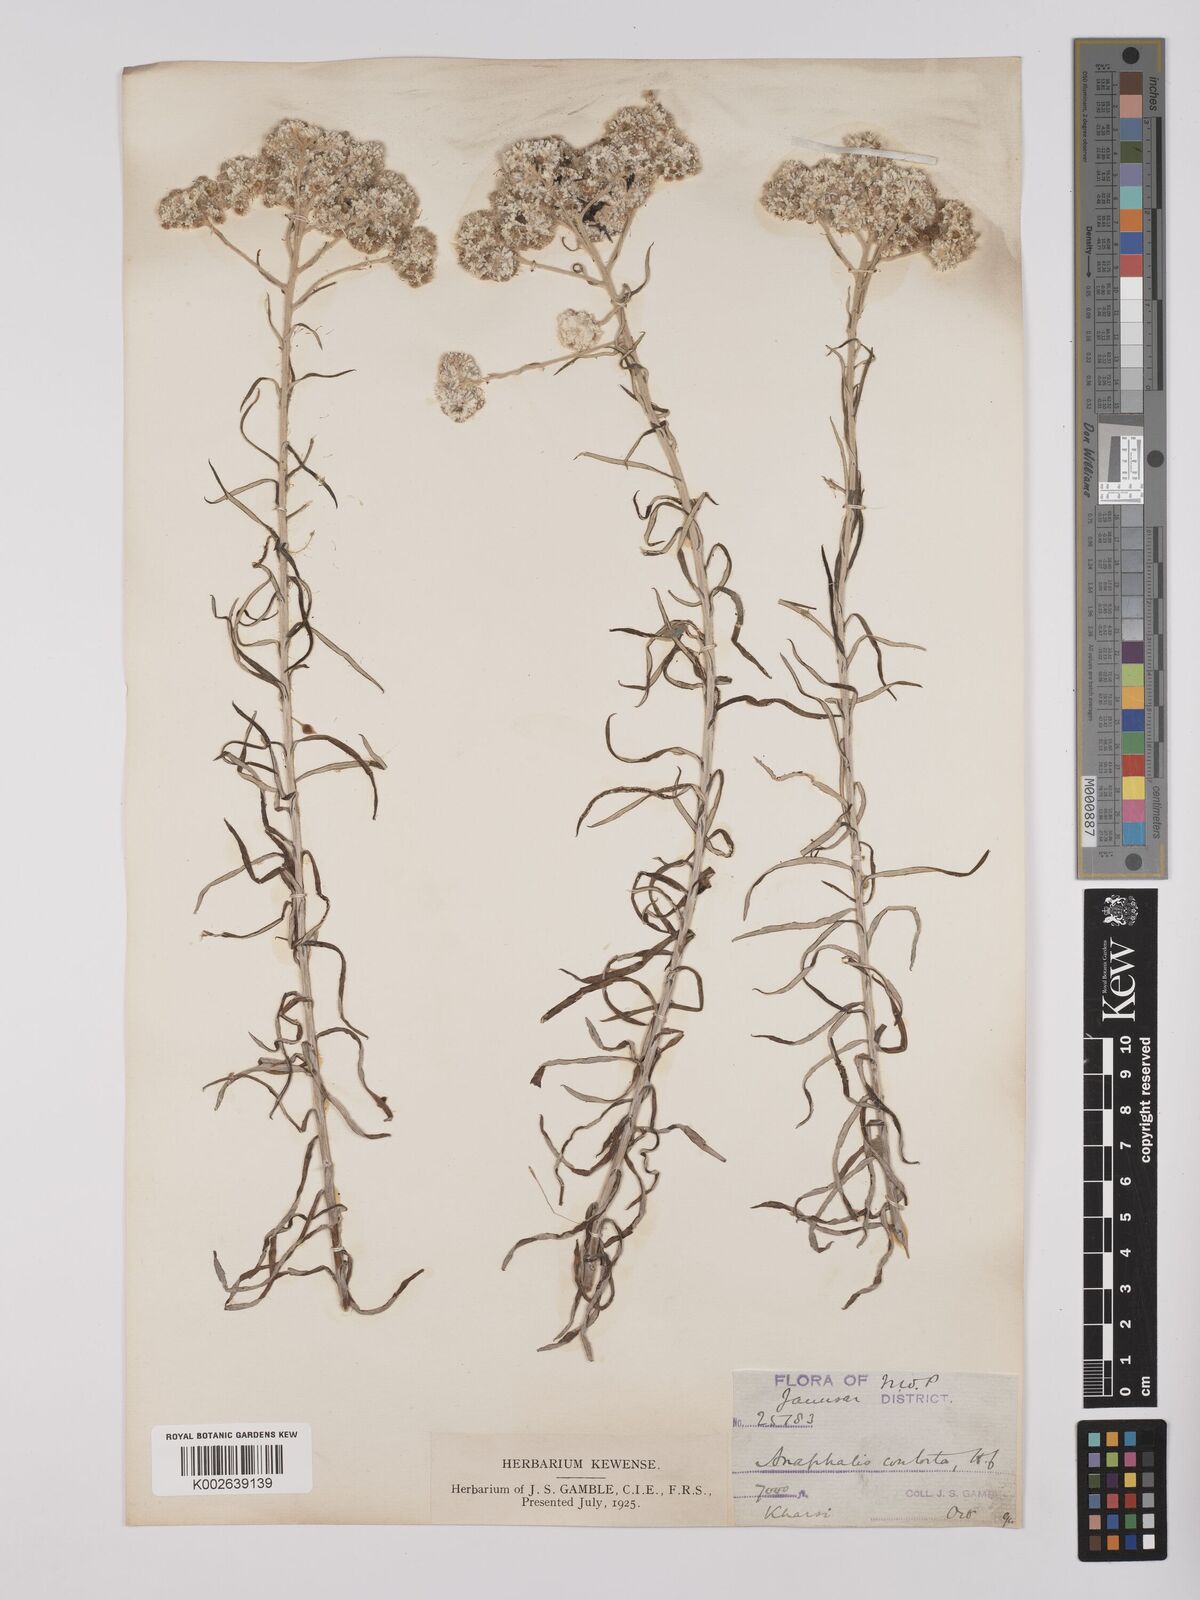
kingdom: Plantae
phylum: Tracheophyta
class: Magnoliopsida
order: Asterales
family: Asteraceae
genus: Anaphalis
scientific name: Anaphalis contorta
